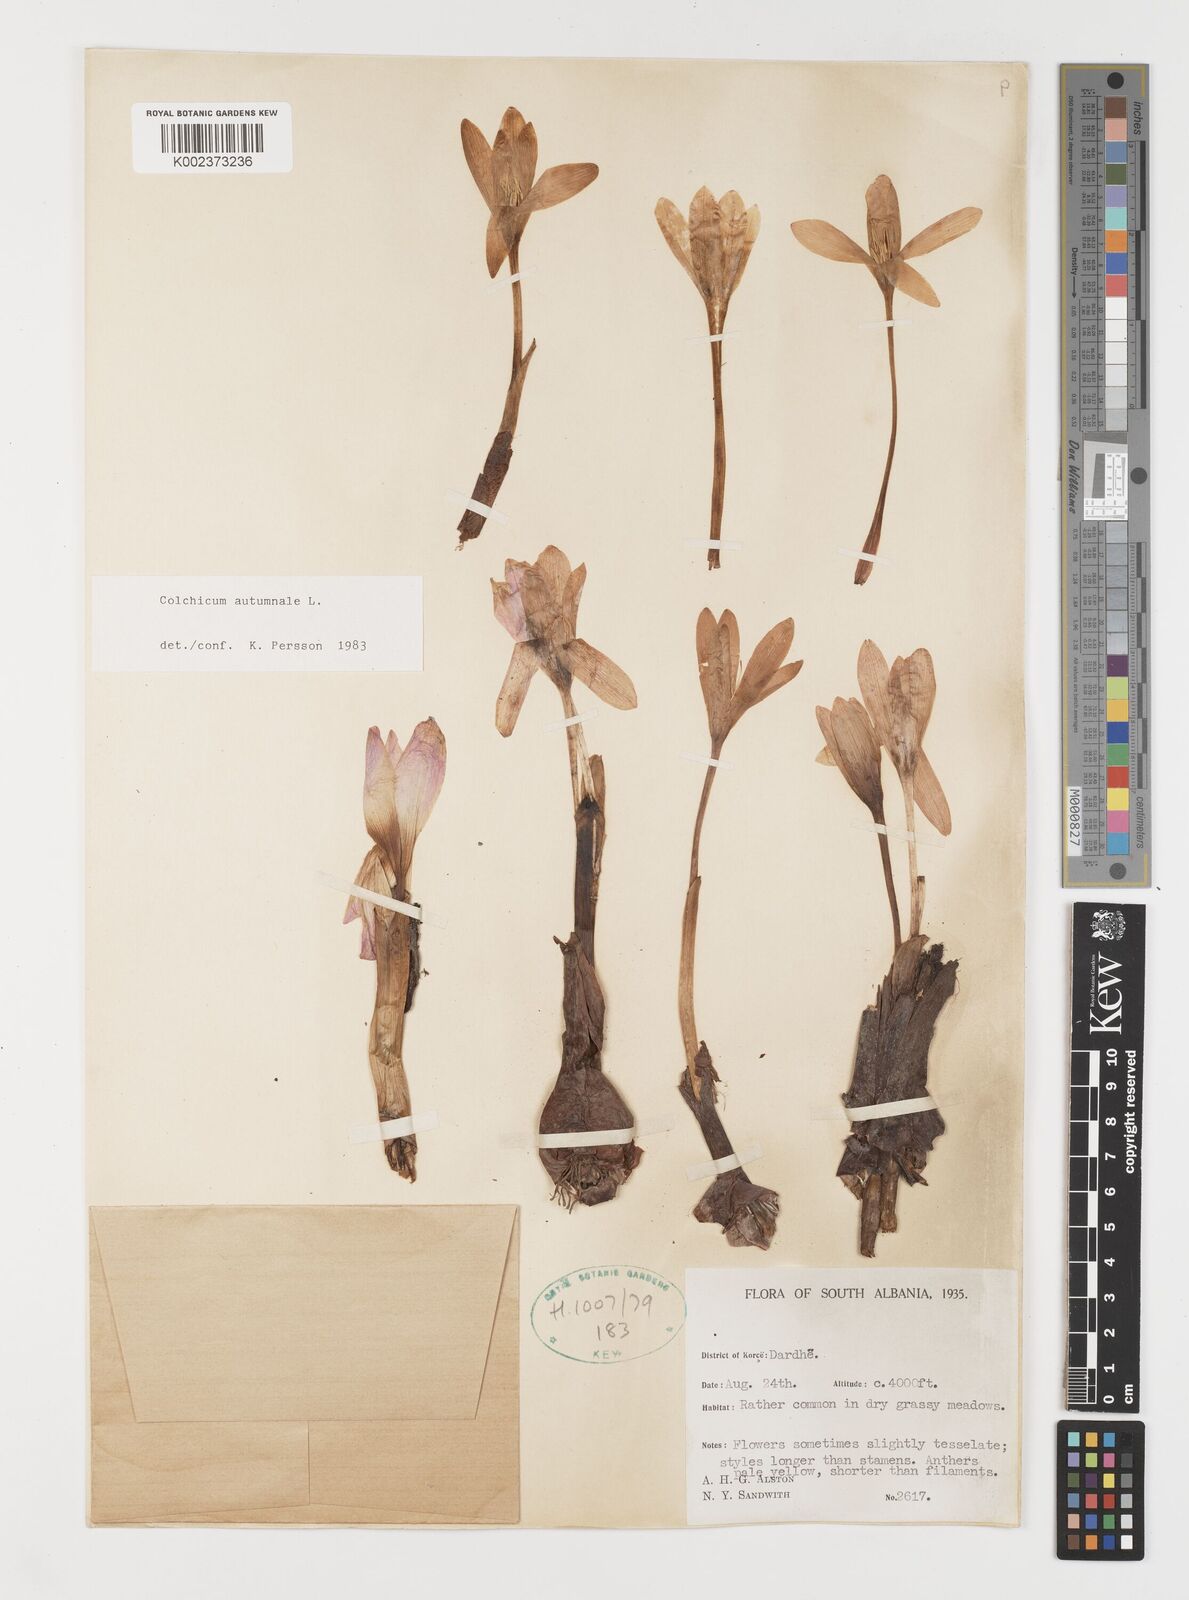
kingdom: Plantae
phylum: Tracheophyta
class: Liliopsida
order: Liliales
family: Colchicaceae
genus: Colchicum
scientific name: Colchicum autumnale
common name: Autumn crocus
